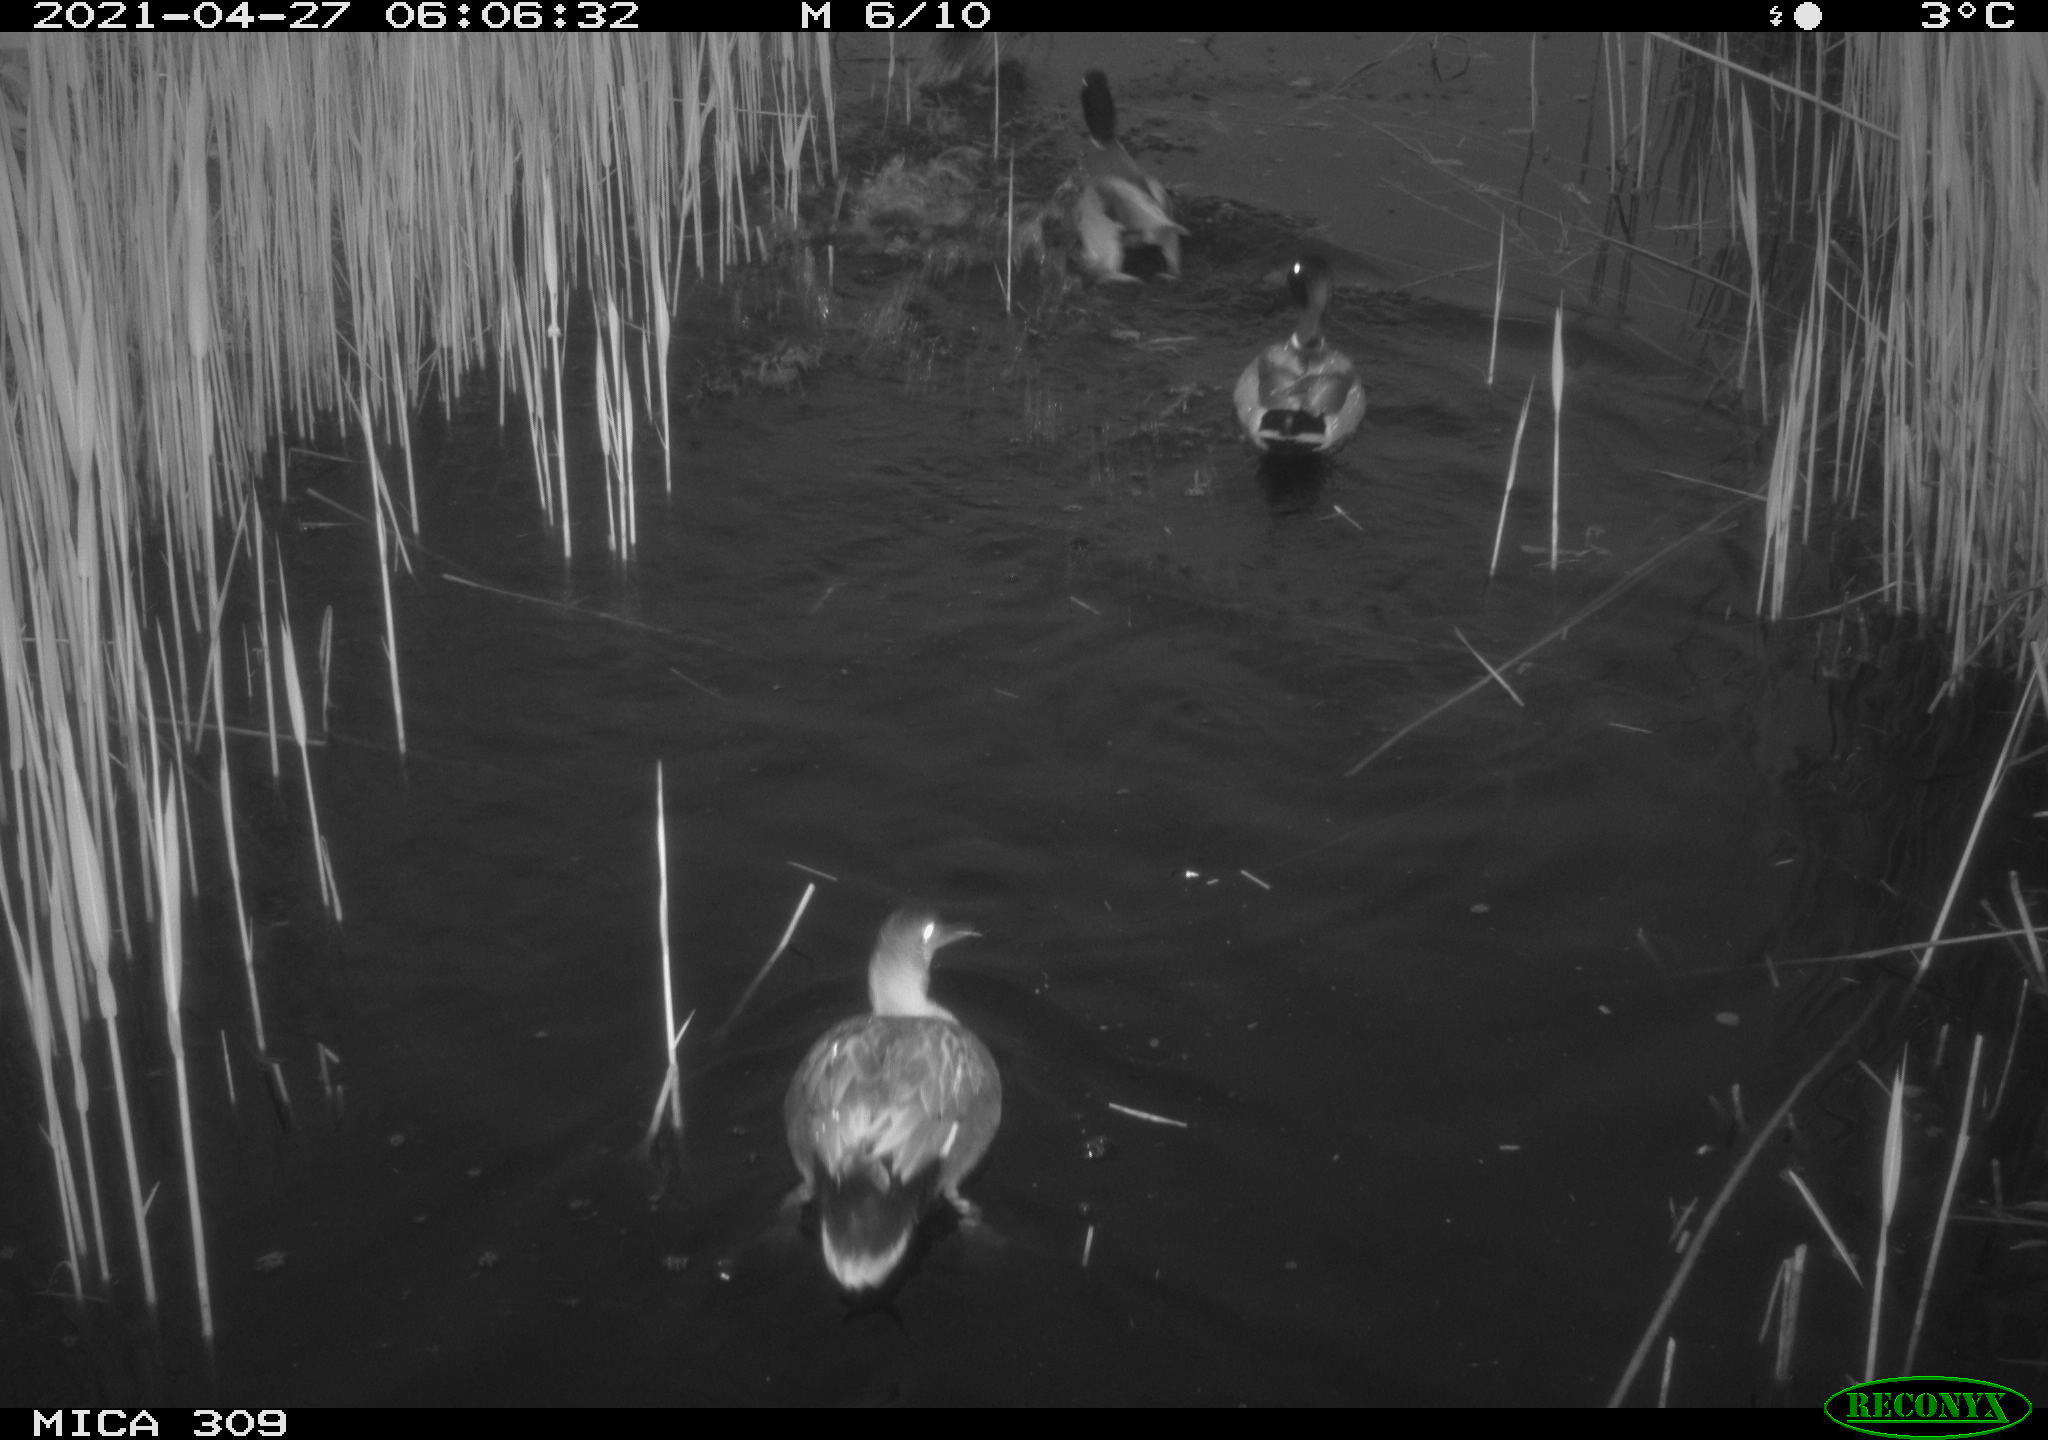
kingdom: Animalia
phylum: Chordata
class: Aves
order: Anseriformes
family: Anatidae
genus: Mareca
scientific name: Mareca strepera
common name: Gadwall
